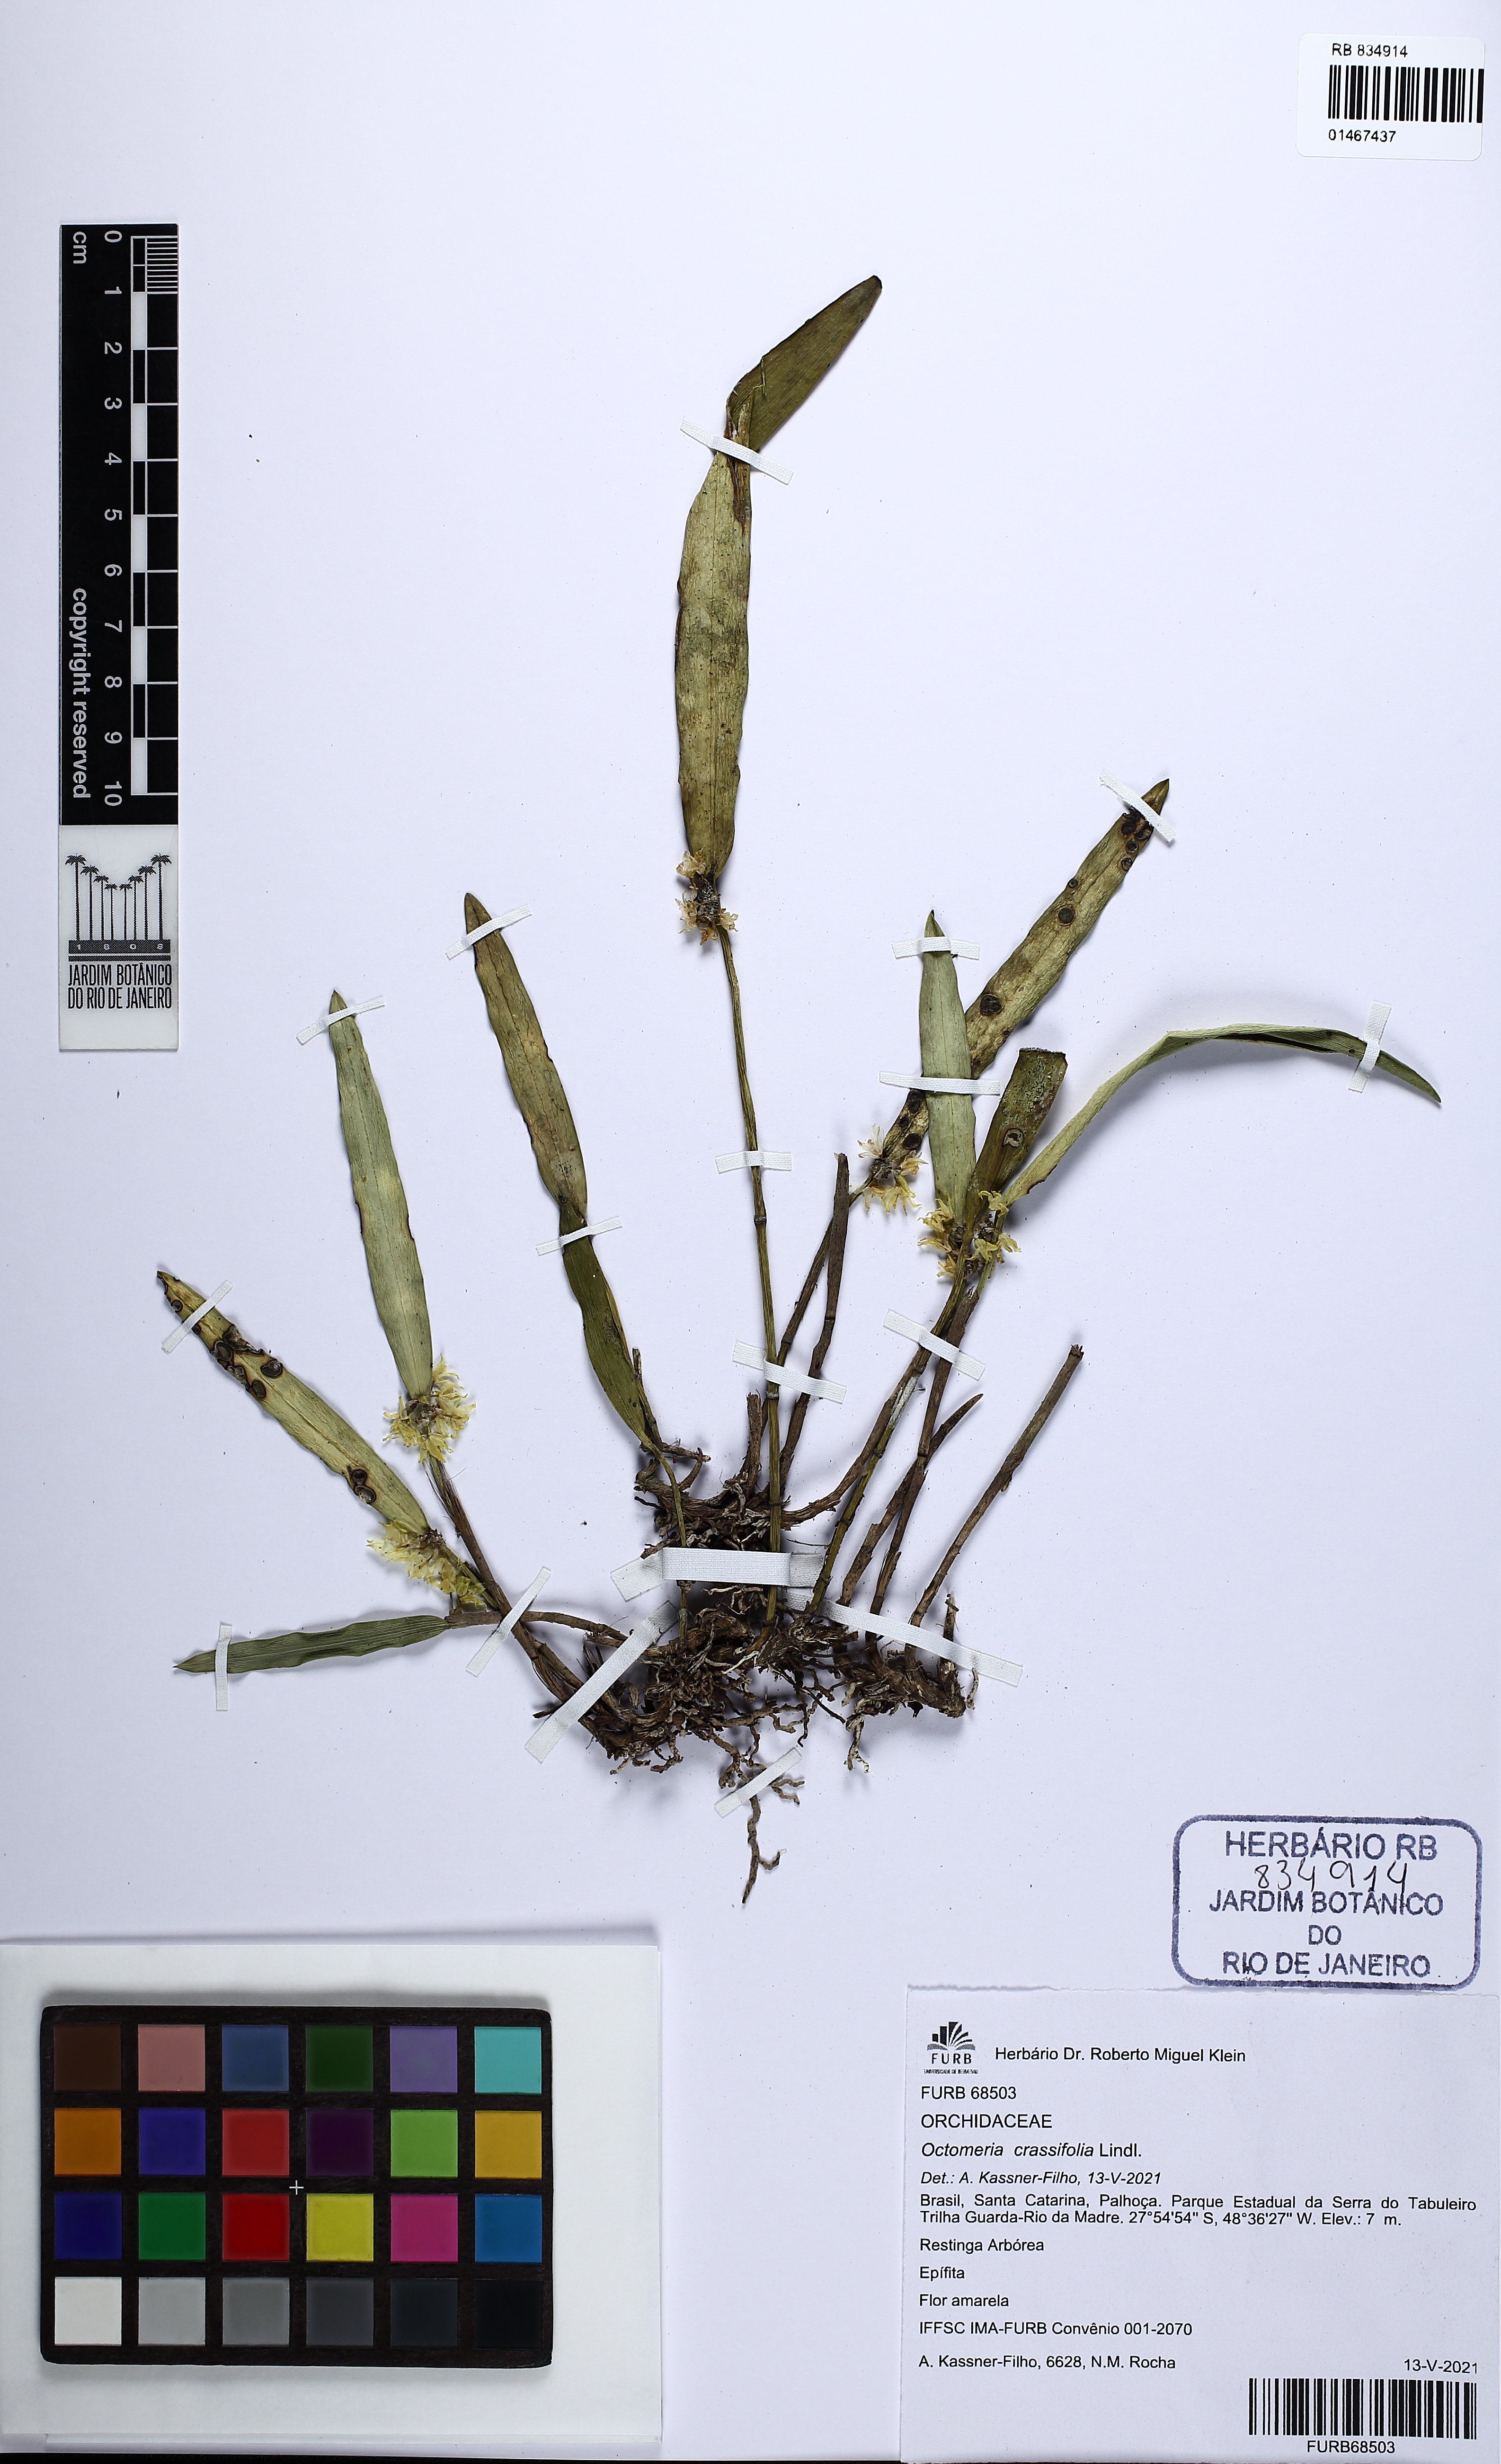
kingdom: Plantae
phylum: Tracheophyta
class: Liliopsida
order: Asparagales
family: Orchidaceae
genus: Octomeria
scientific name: Octomeria crassifolia
